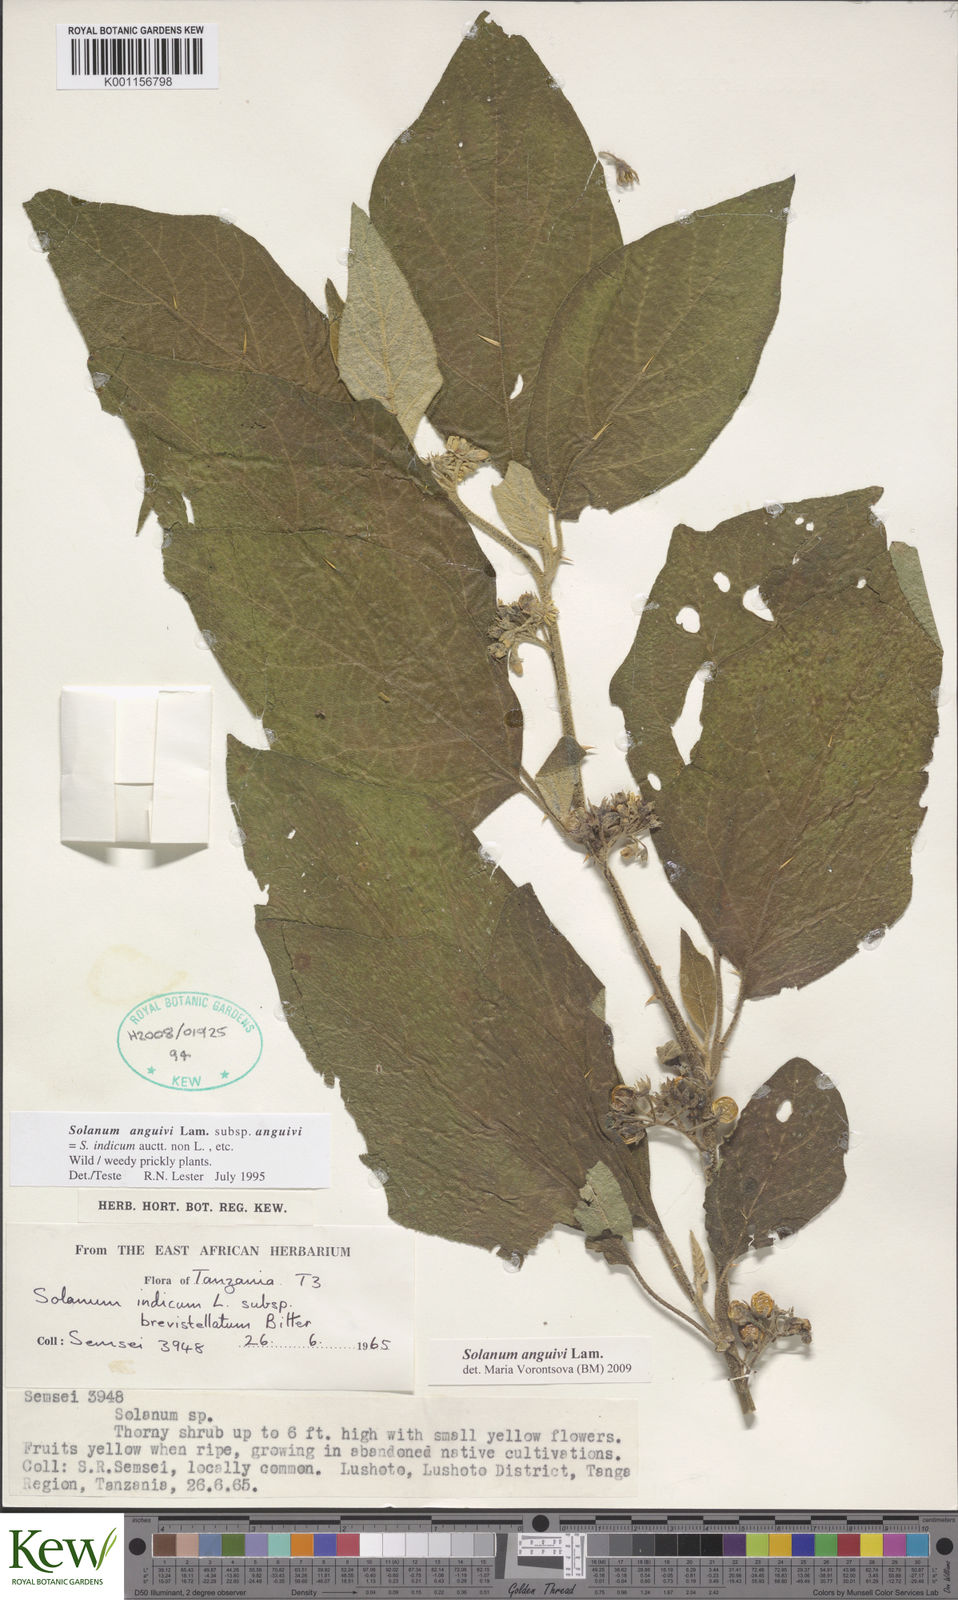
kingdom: Plantae
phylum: Tracheophyta
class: Magnoliopsida
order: Solanales
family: Solanaceae
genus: Solanum
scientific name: Solanum anguivi
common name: Forest bitterberry
